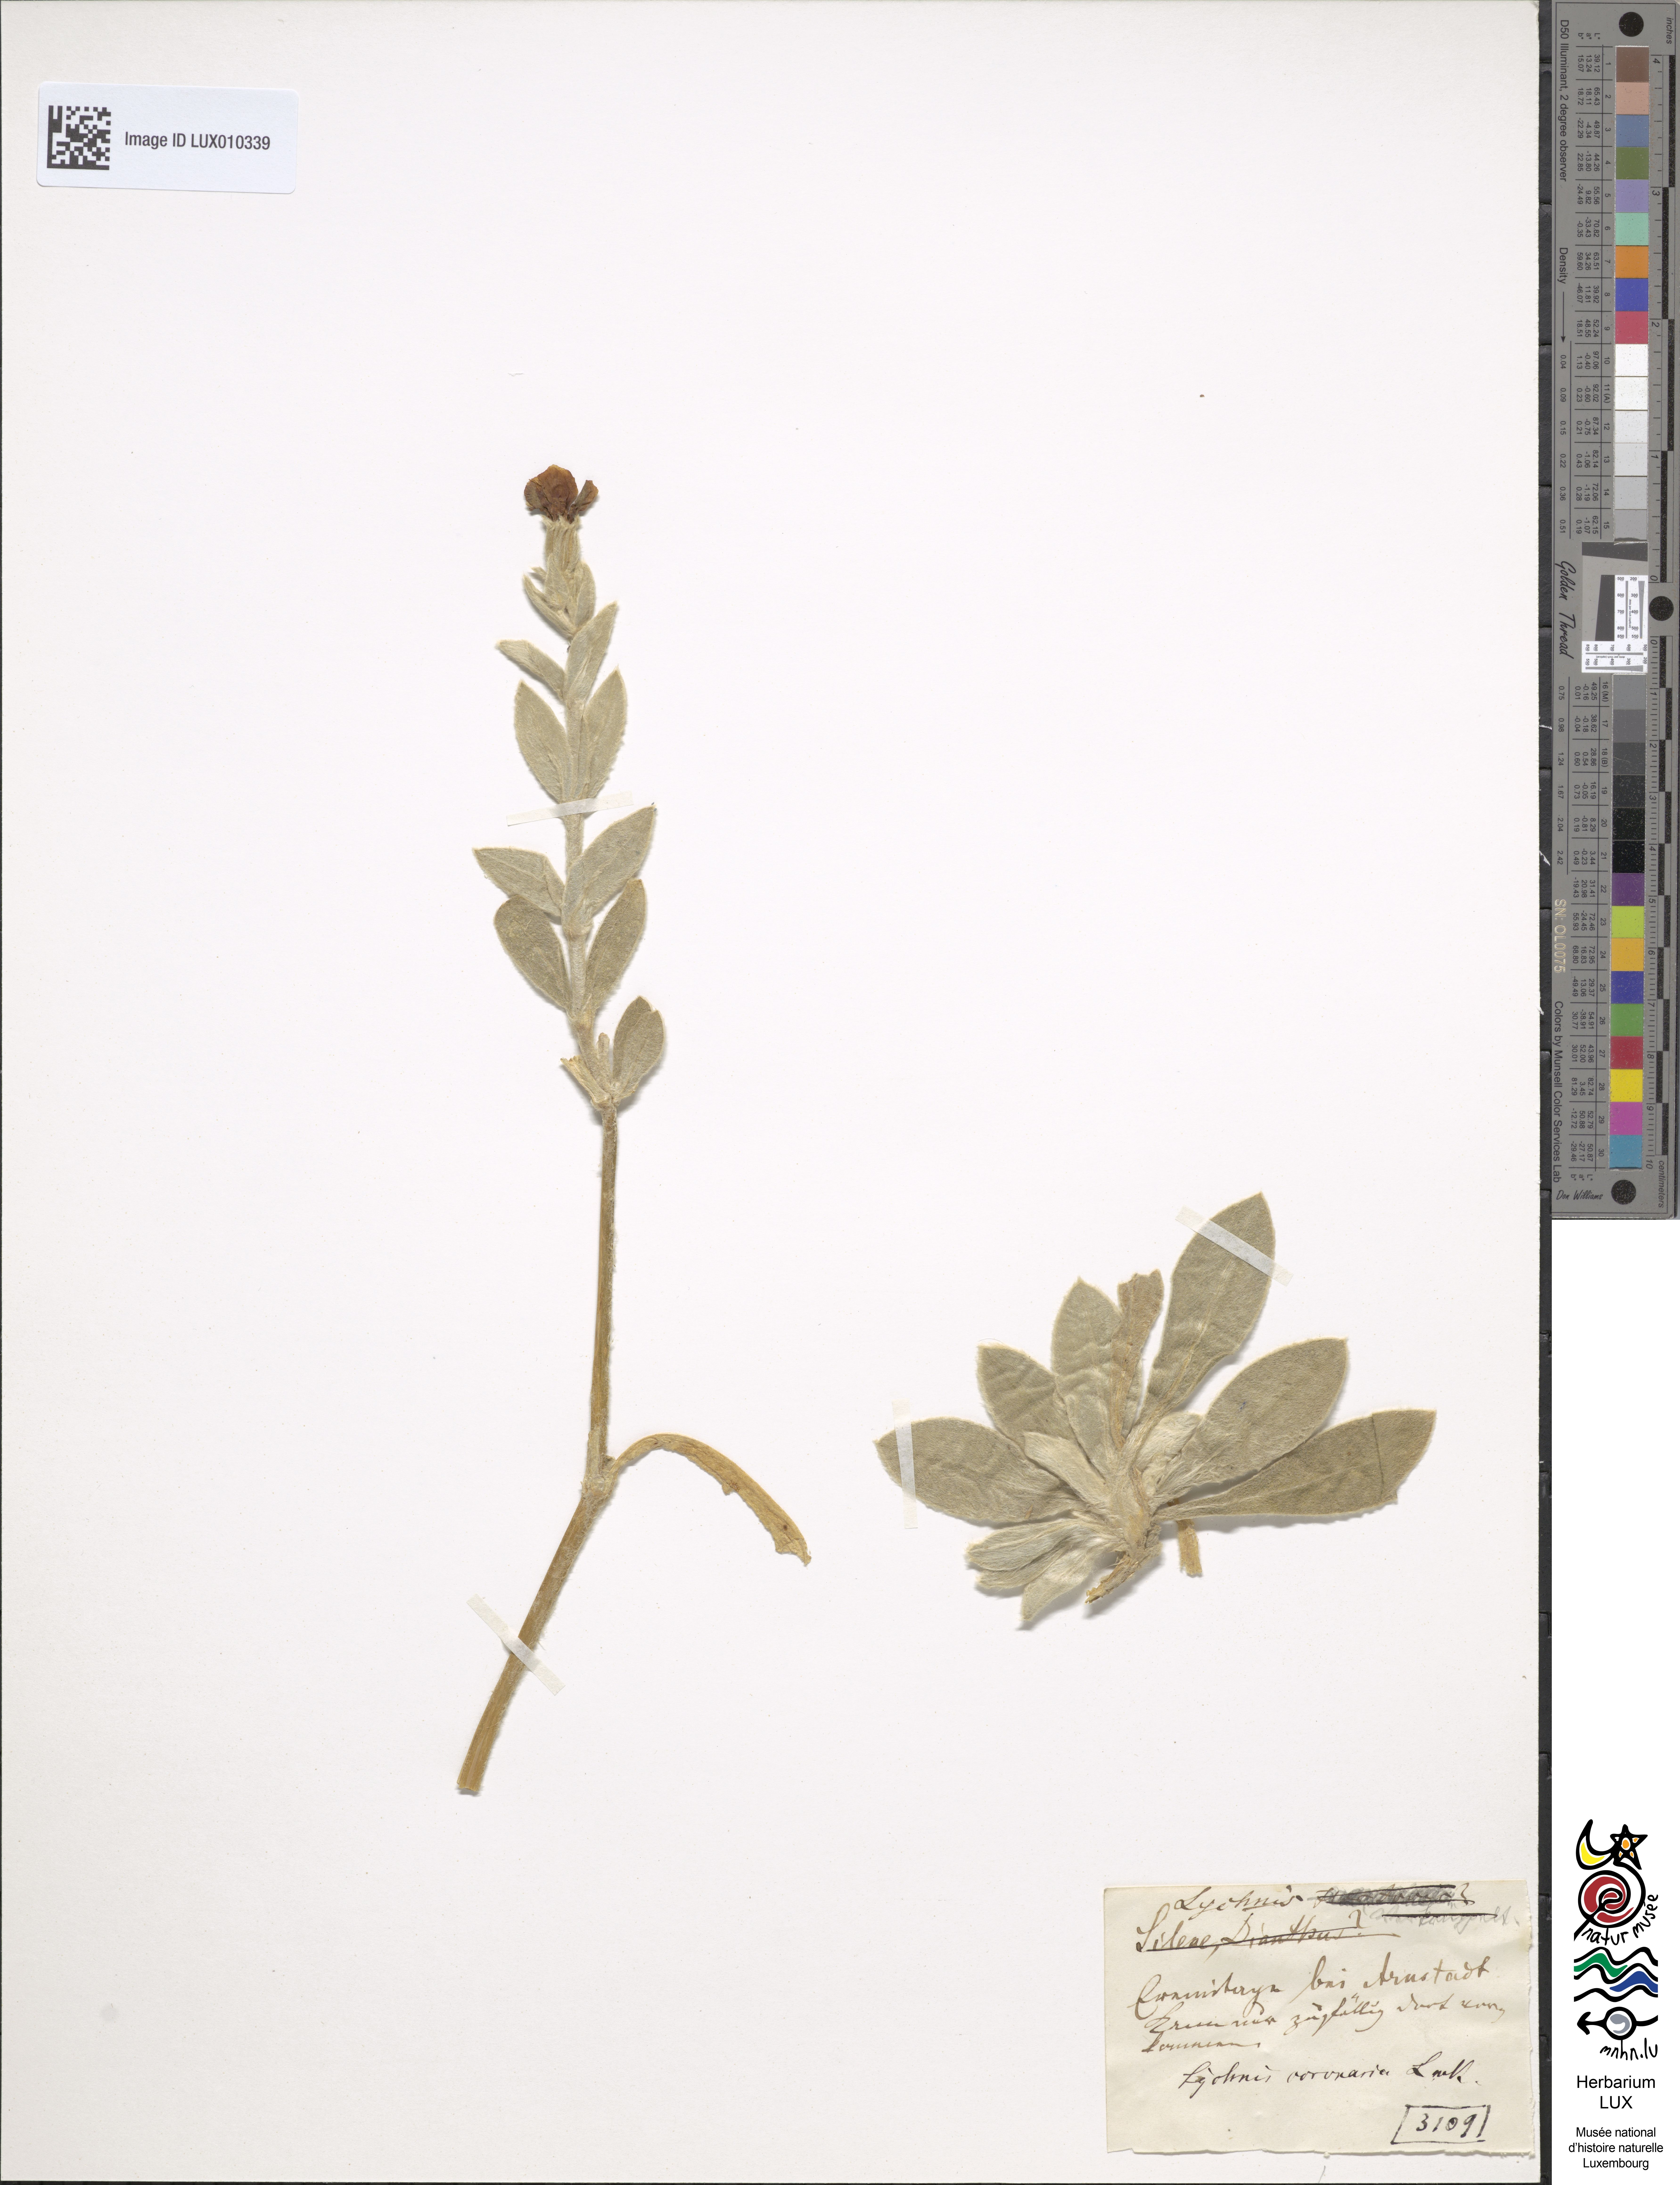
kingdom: Plantae
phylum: Tracheophyta
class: Magnoliopsida
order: Caryophyllales
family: Caryophyllaceae
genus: Silene
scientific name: Silene coronaria
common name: Rose campion
